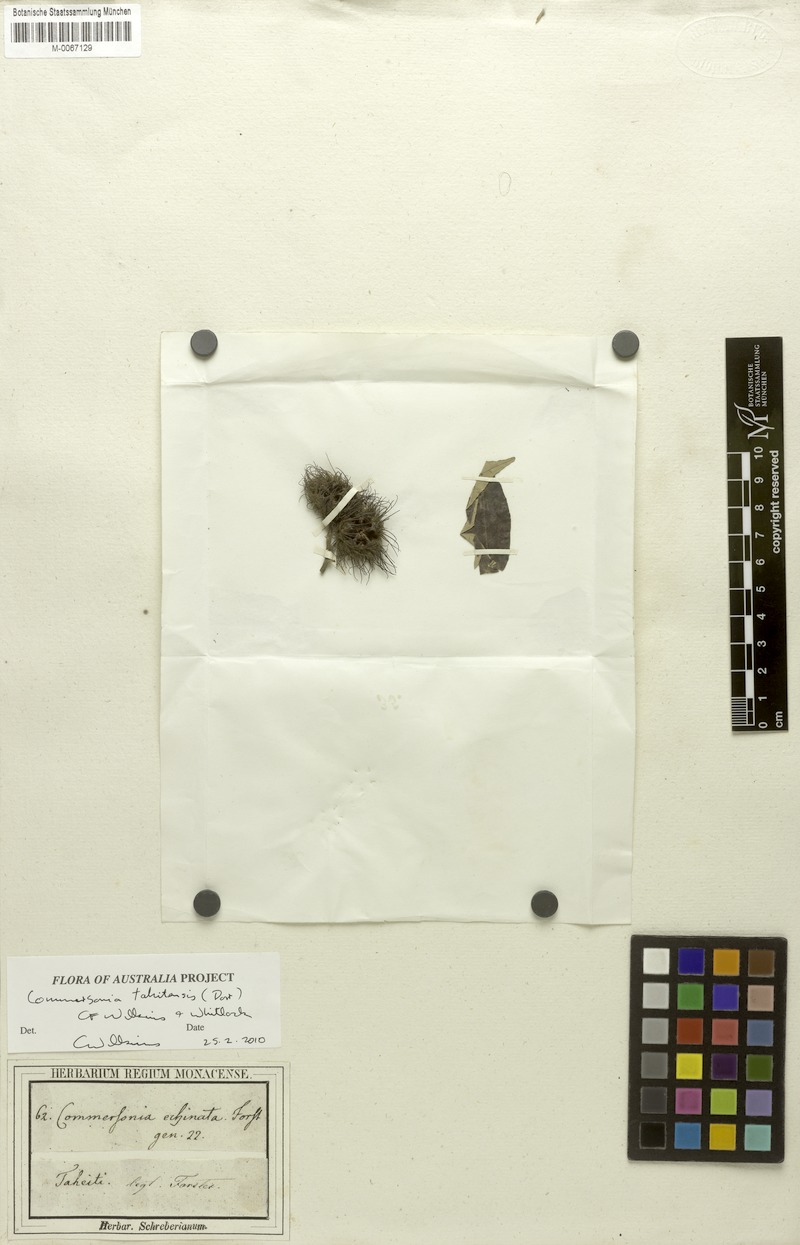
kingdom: Plantae
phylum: Tracheophyta
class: Magnoliopsida
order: Malvales
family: Malvaceae
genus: Commersonia
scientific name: Commersonia tahitensis
